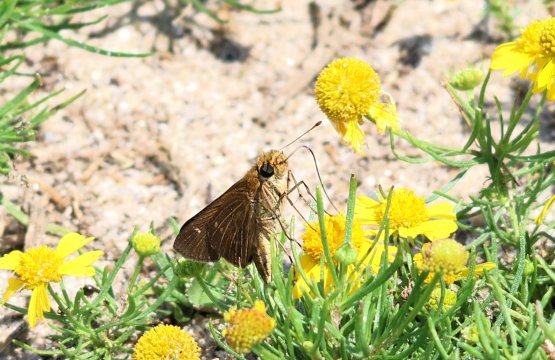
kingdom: Animalia
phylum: Arthropoda
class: Insecta
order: Lepidoptera
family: Hesperiidae
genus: Panoquina
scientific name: Panoquina ocola
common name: Ocola Skipper
